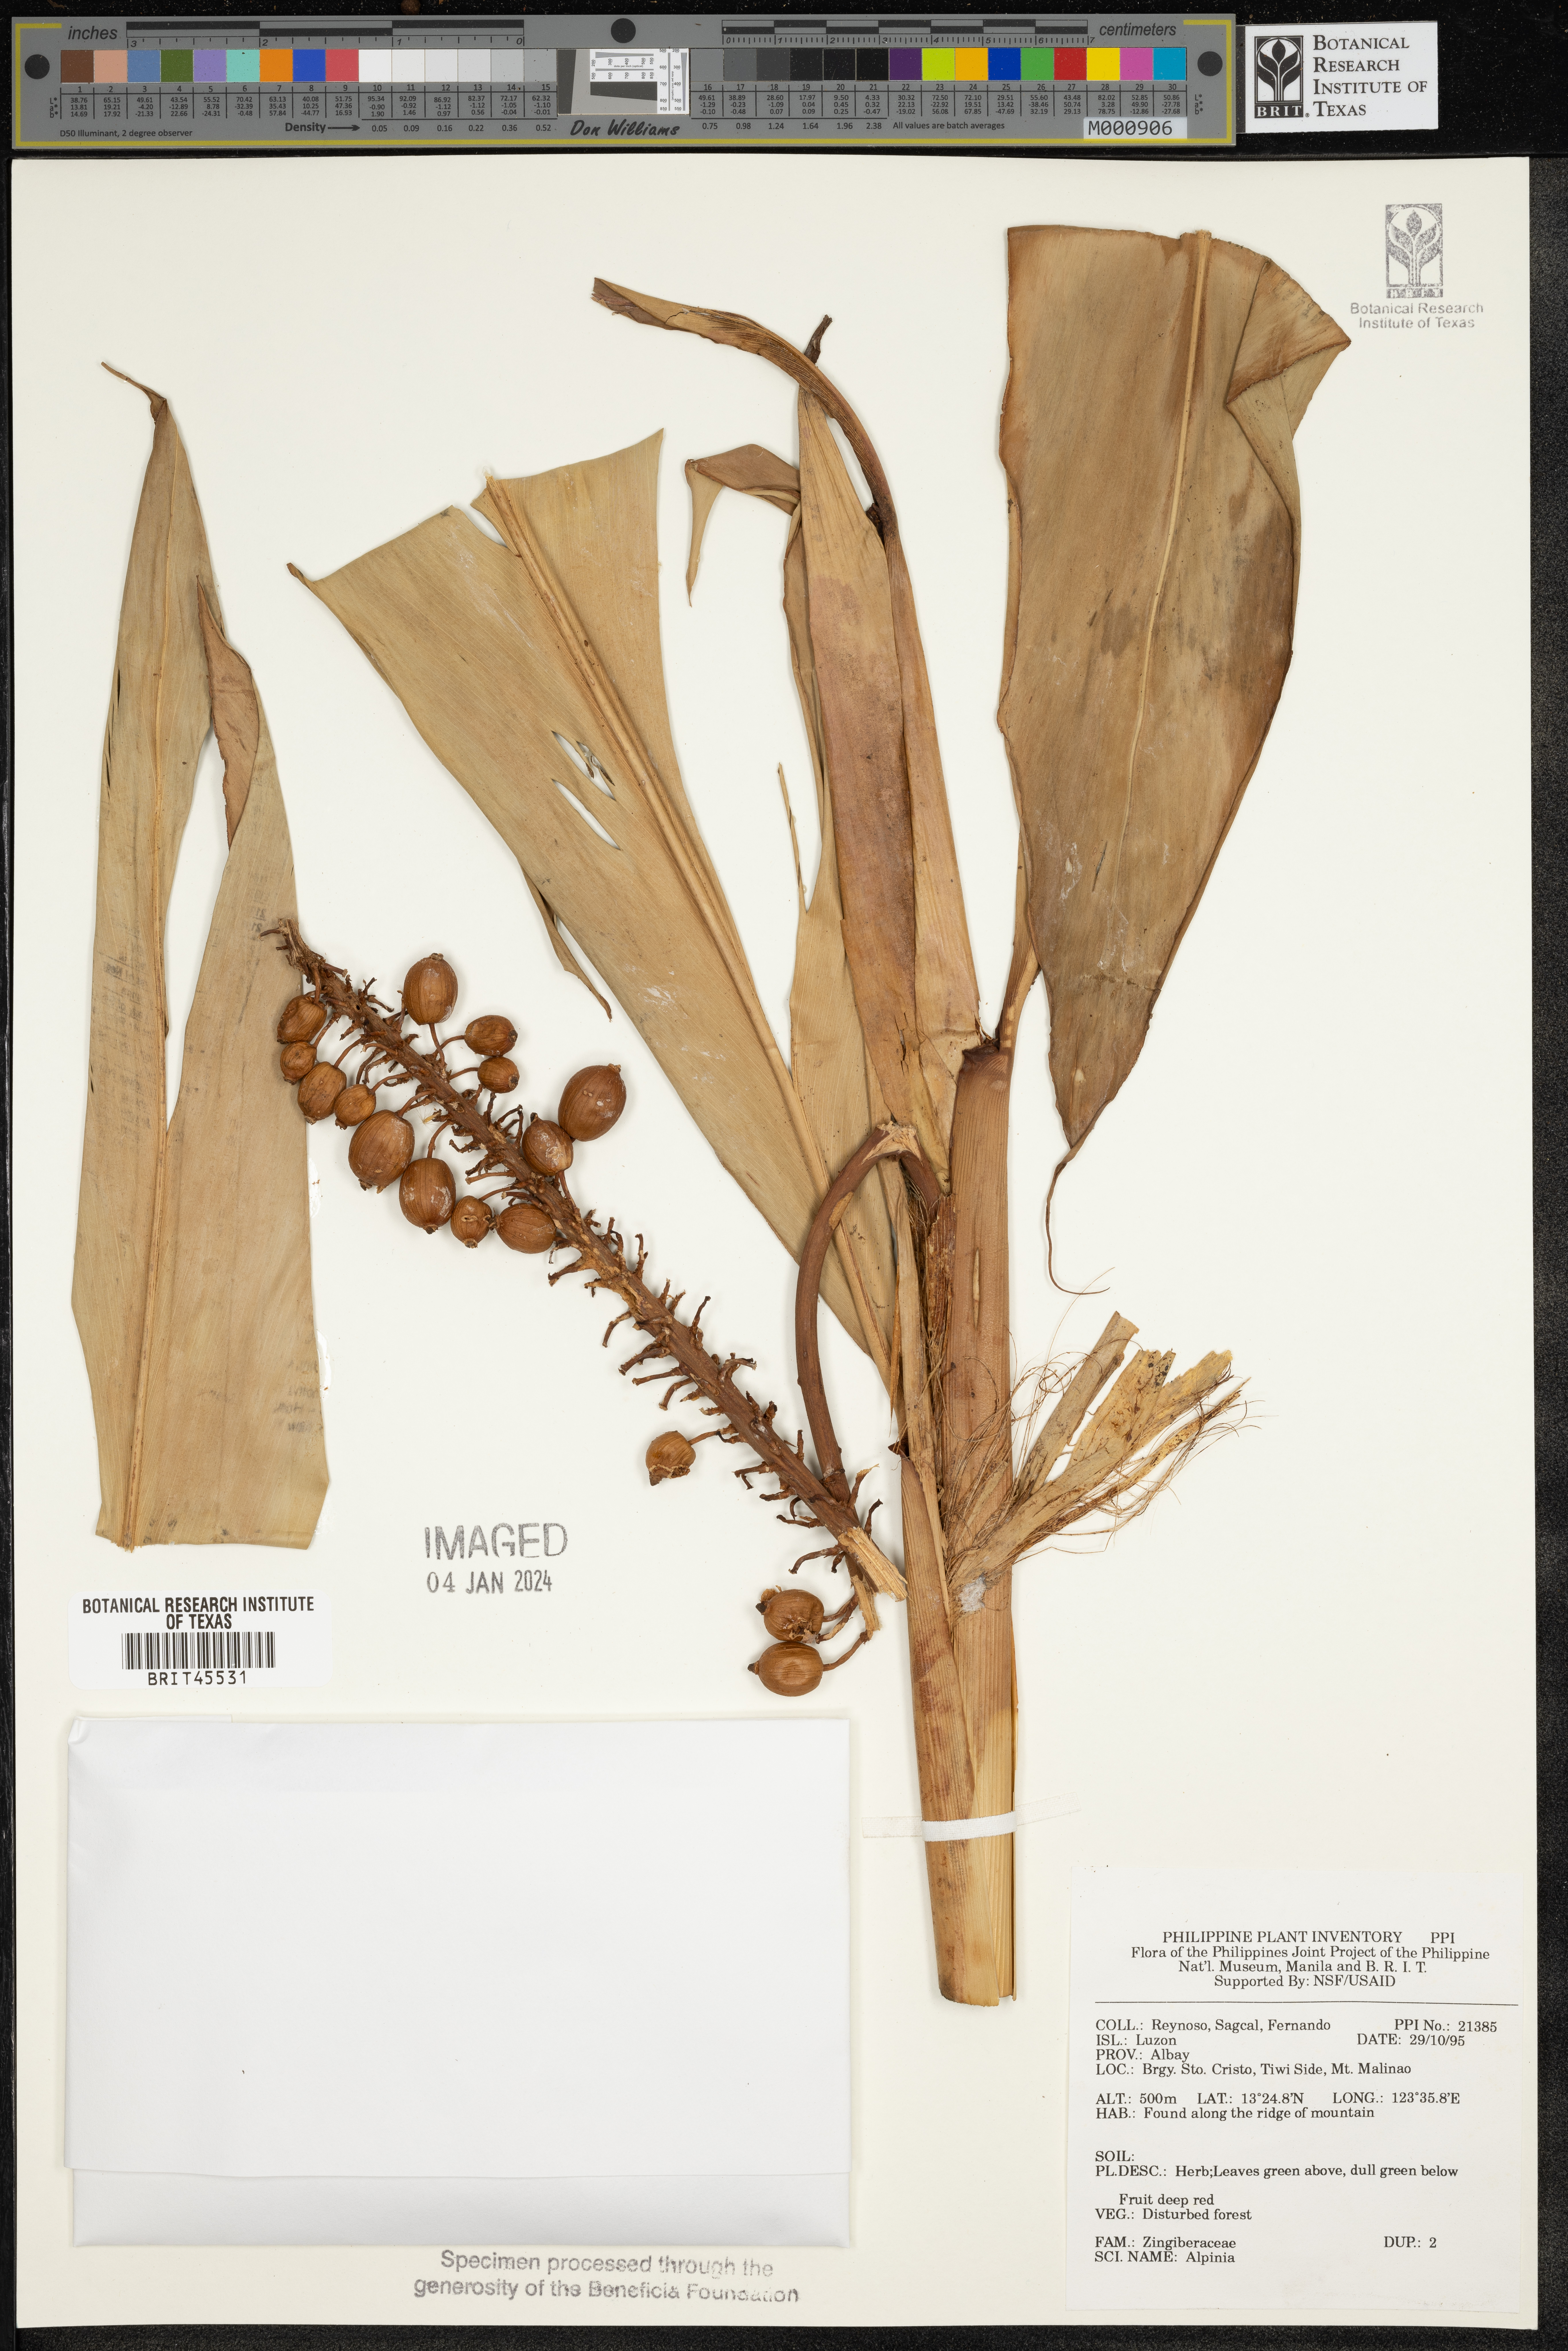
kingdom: Plantae
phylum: Tracheophyta
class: Liliopsida
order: Zingiberales
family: Zingiberaceae
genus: Alpinia
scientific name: Alpinia
